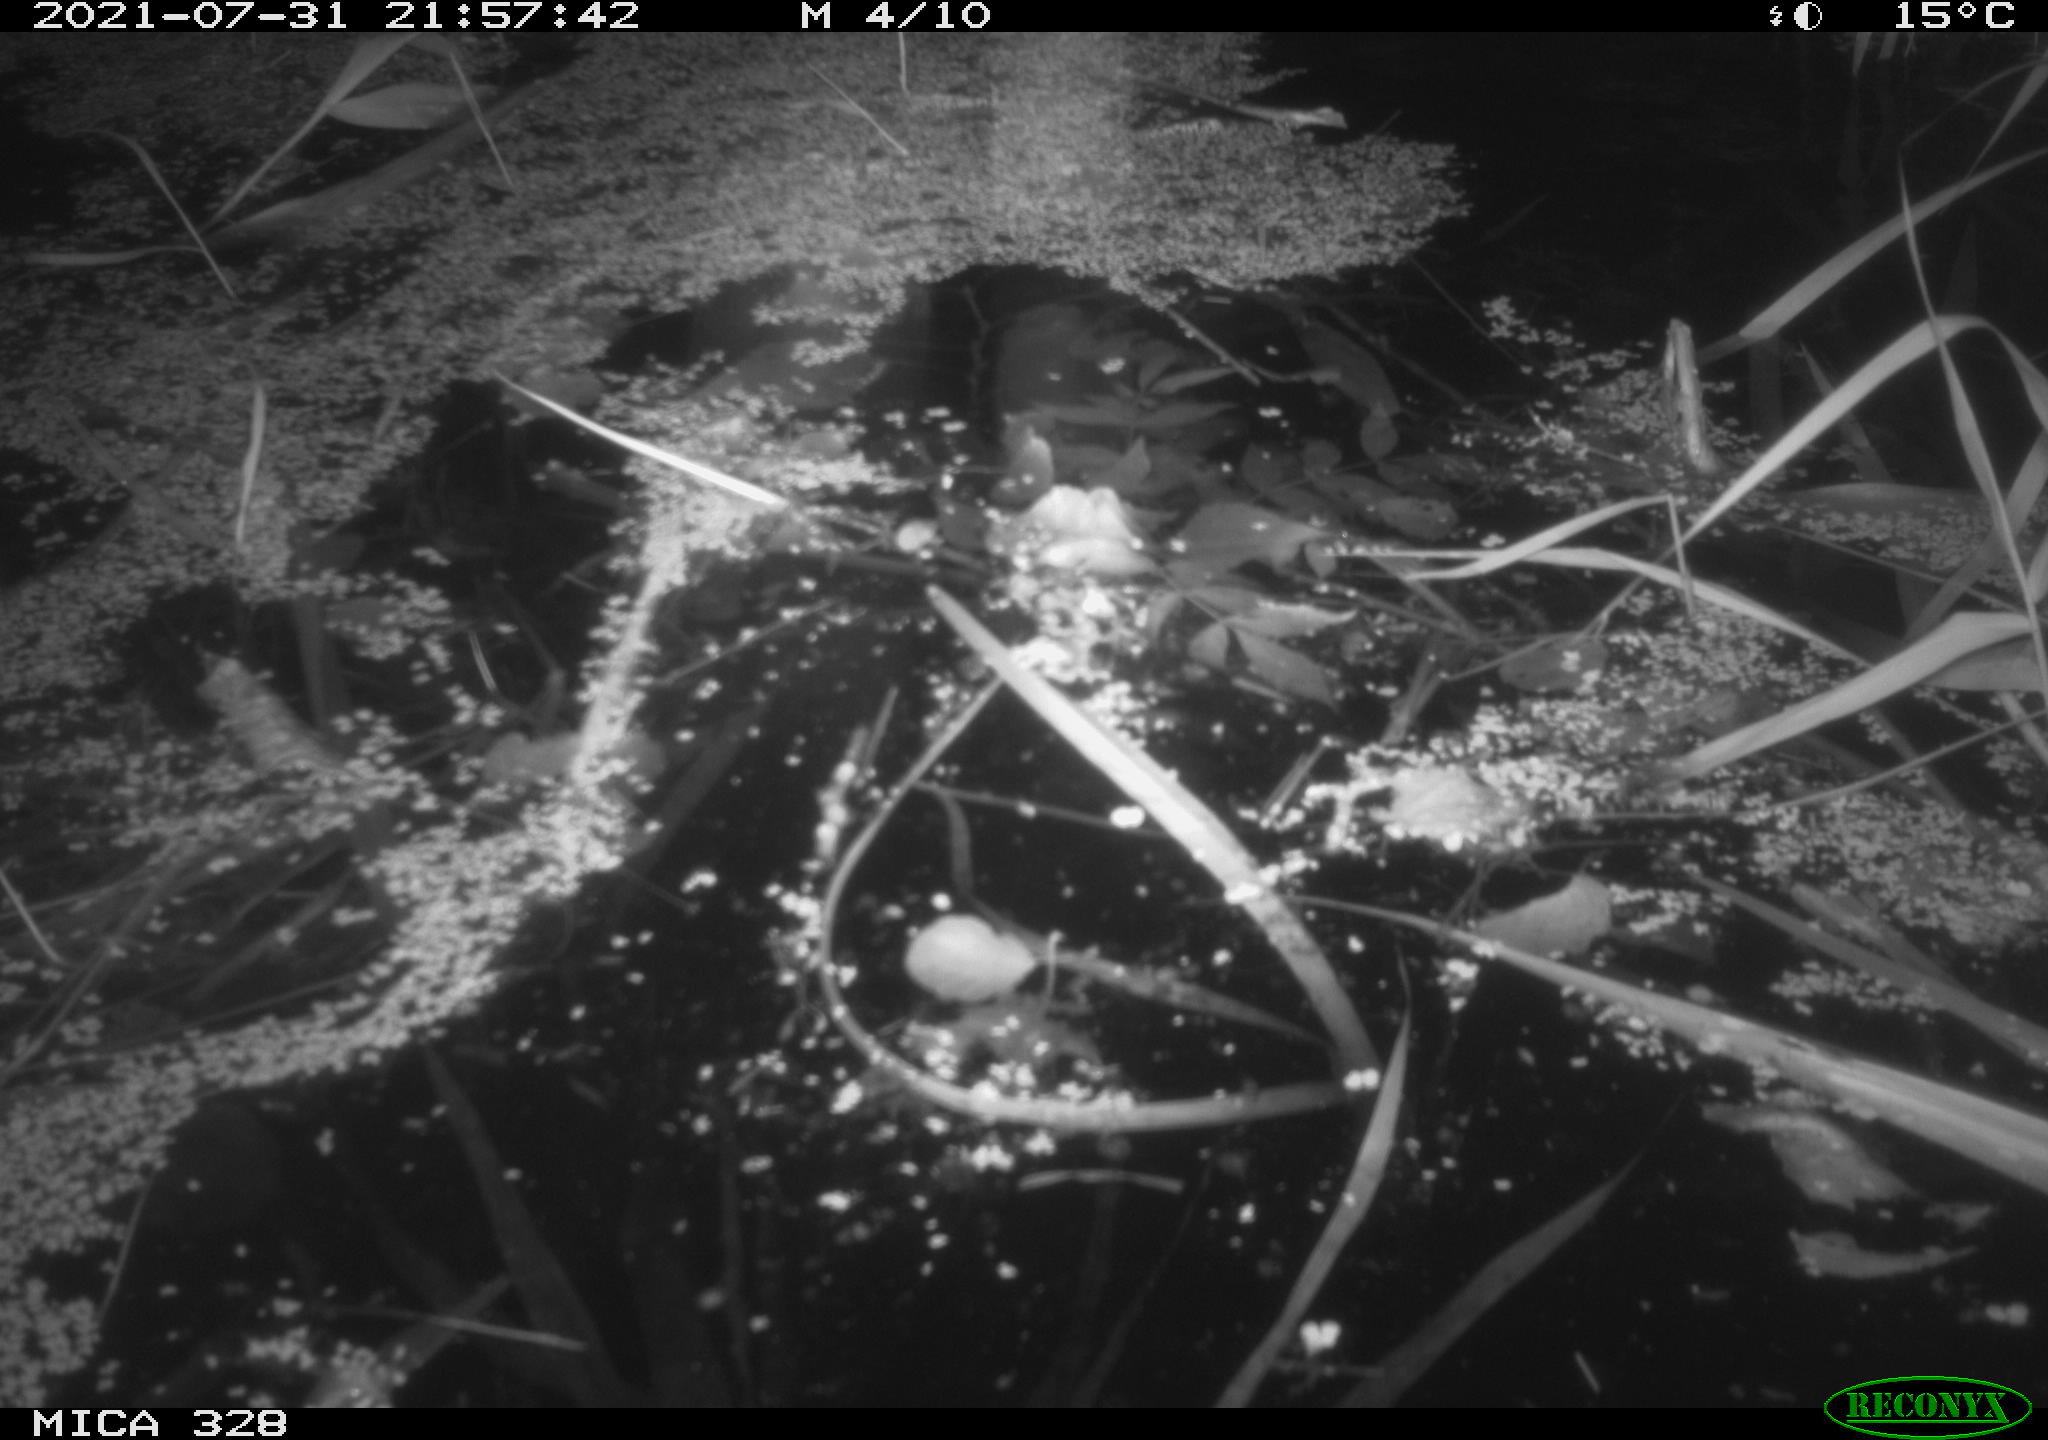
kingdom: Animalia
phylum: Chordata
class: Mammalia
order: Rodentia
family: Cricetidae
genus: Ondatra
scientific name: Ondatra zibethicus
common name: Muskrat
